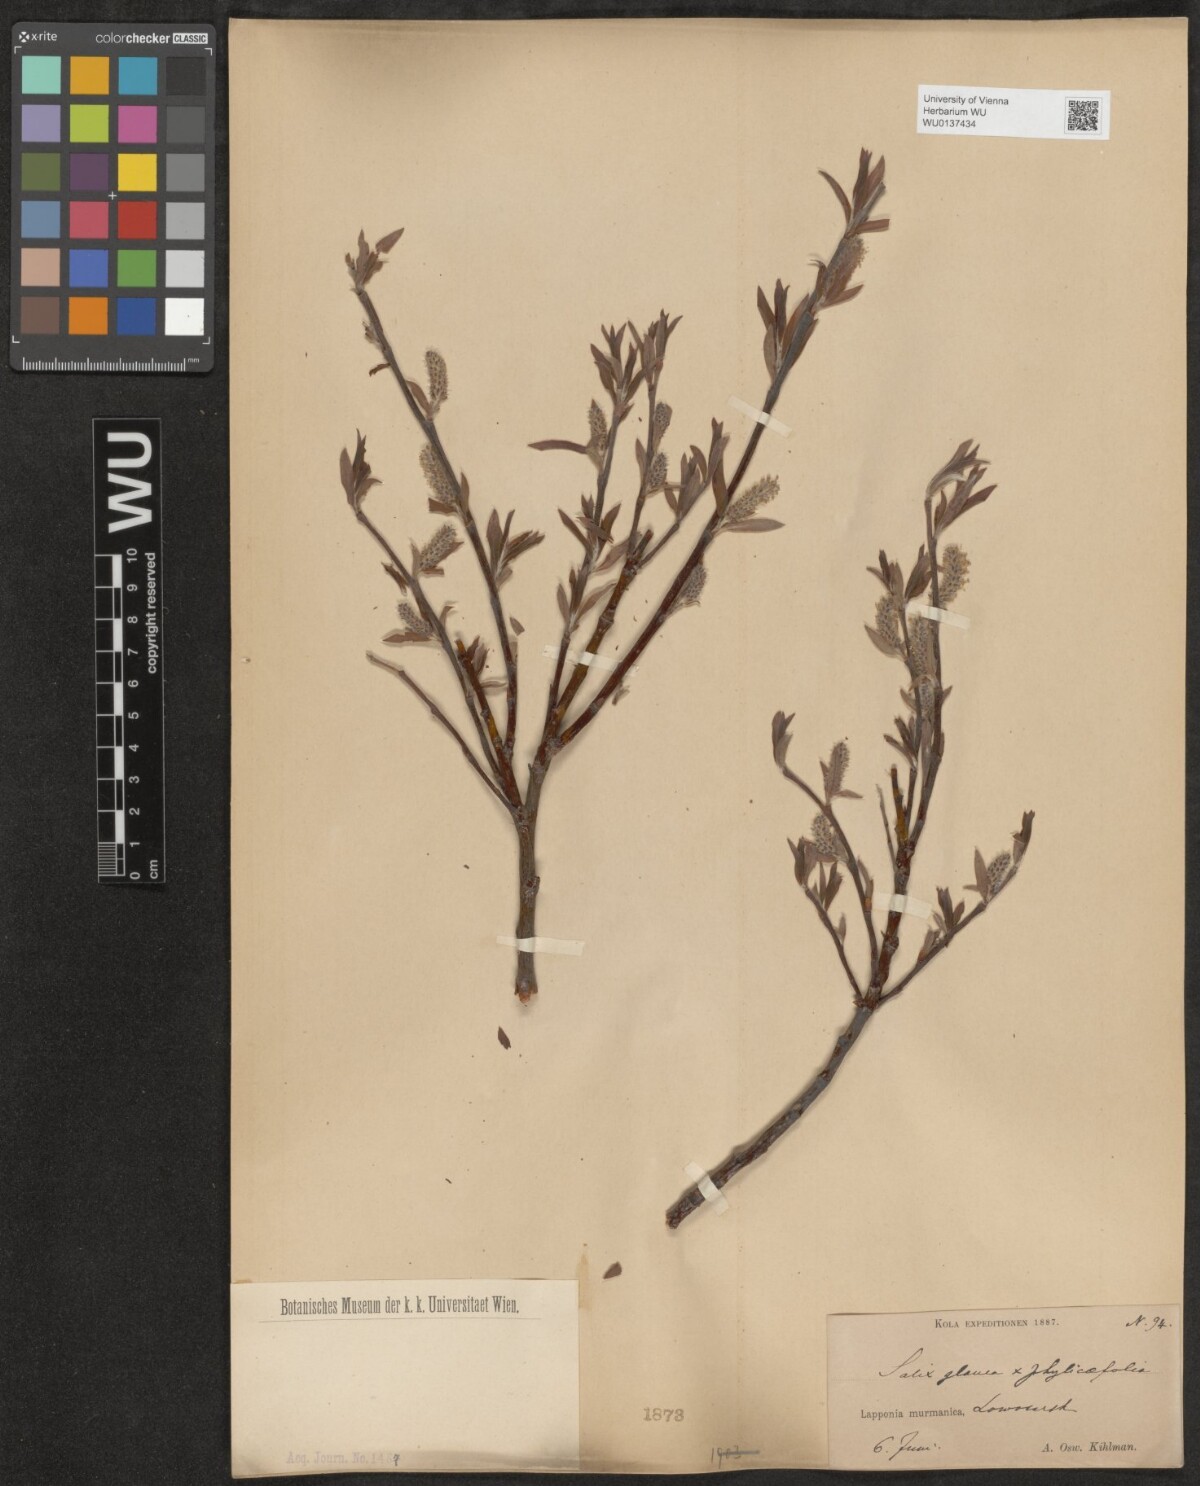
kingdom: Plantae
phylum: Tracheophyta
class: Magnoliopsida
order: Malpighiales
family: Salicaceae
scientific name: Salicaceae
